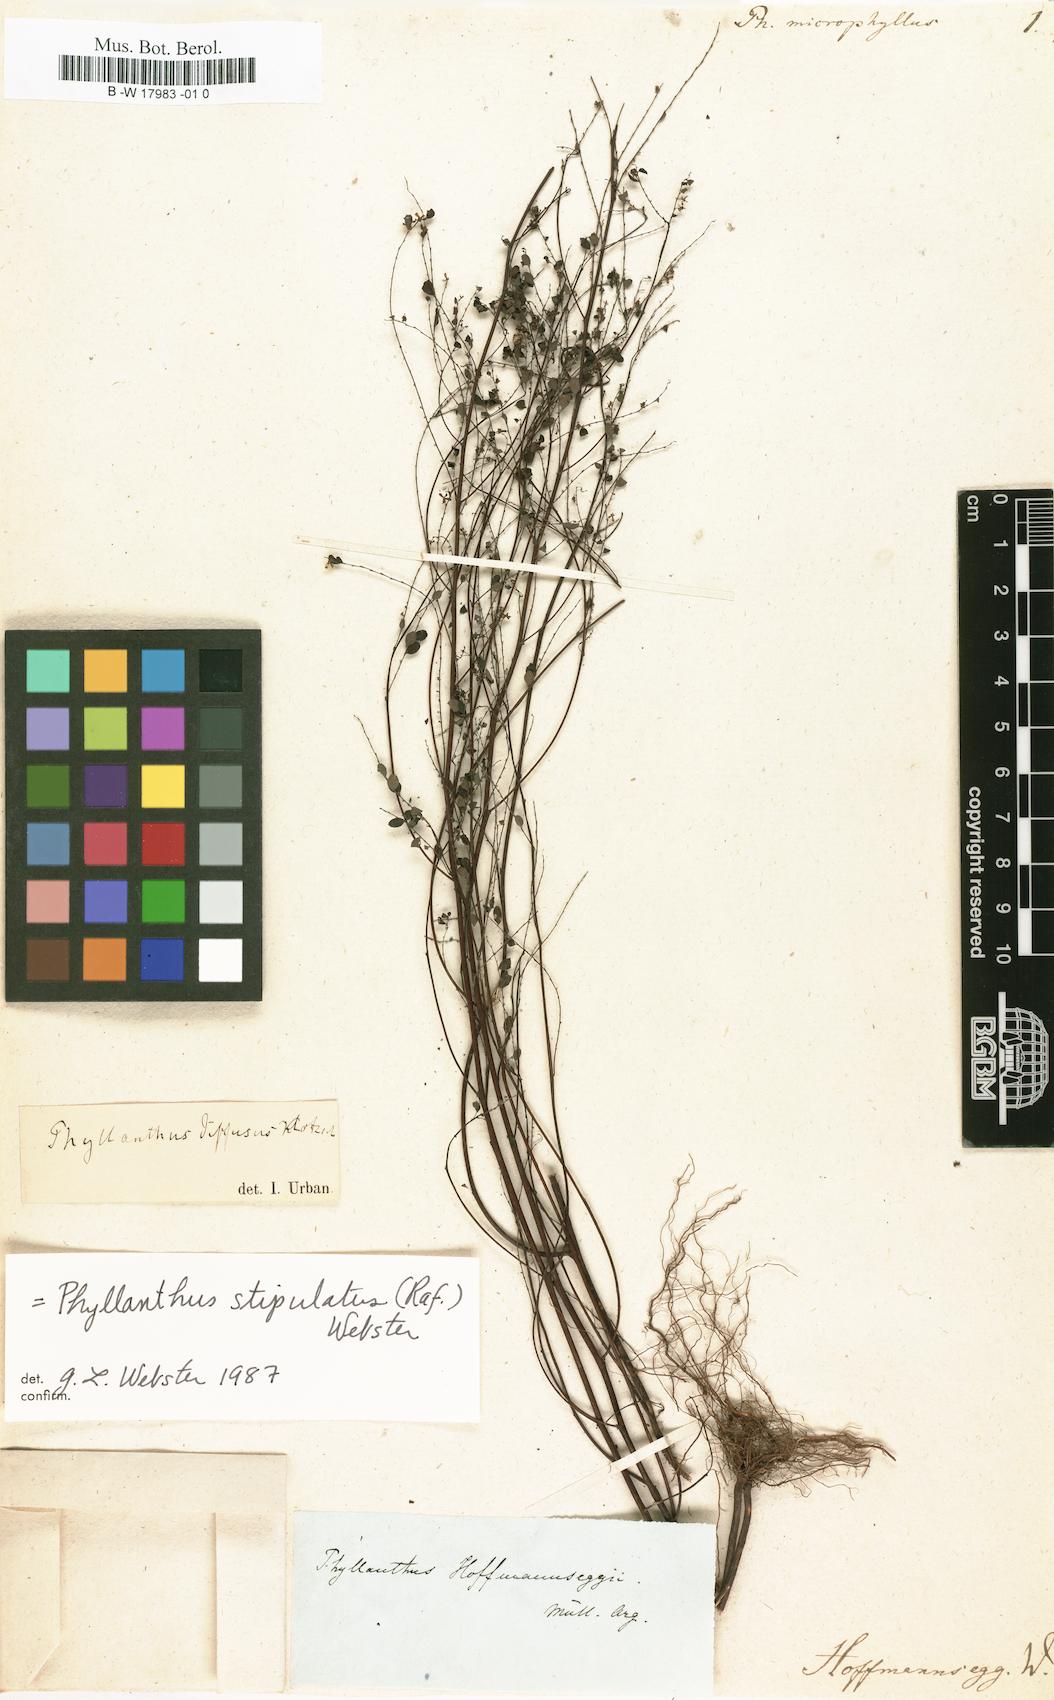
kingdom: Plantae
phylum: Tracheophyta
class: Magnoliopsida
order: Malpighiales
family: Phyllanthaceae
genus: Phyllanthus
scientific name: Phyllanthus stipulatus
